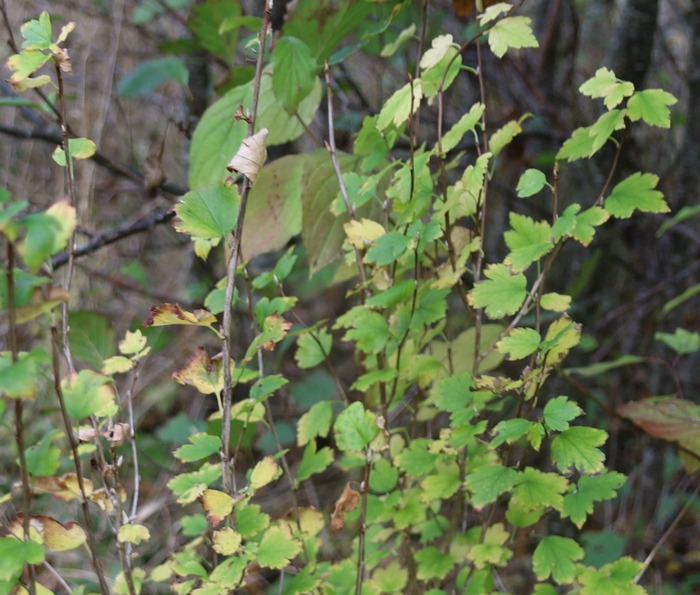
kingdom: Plantae
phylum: Tracheophyta
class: Magnoliopsida
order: Saxifragales
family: Grossulariaceae
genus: Ribes
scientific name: Ribes alpinum
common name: Fjeld-ribs
